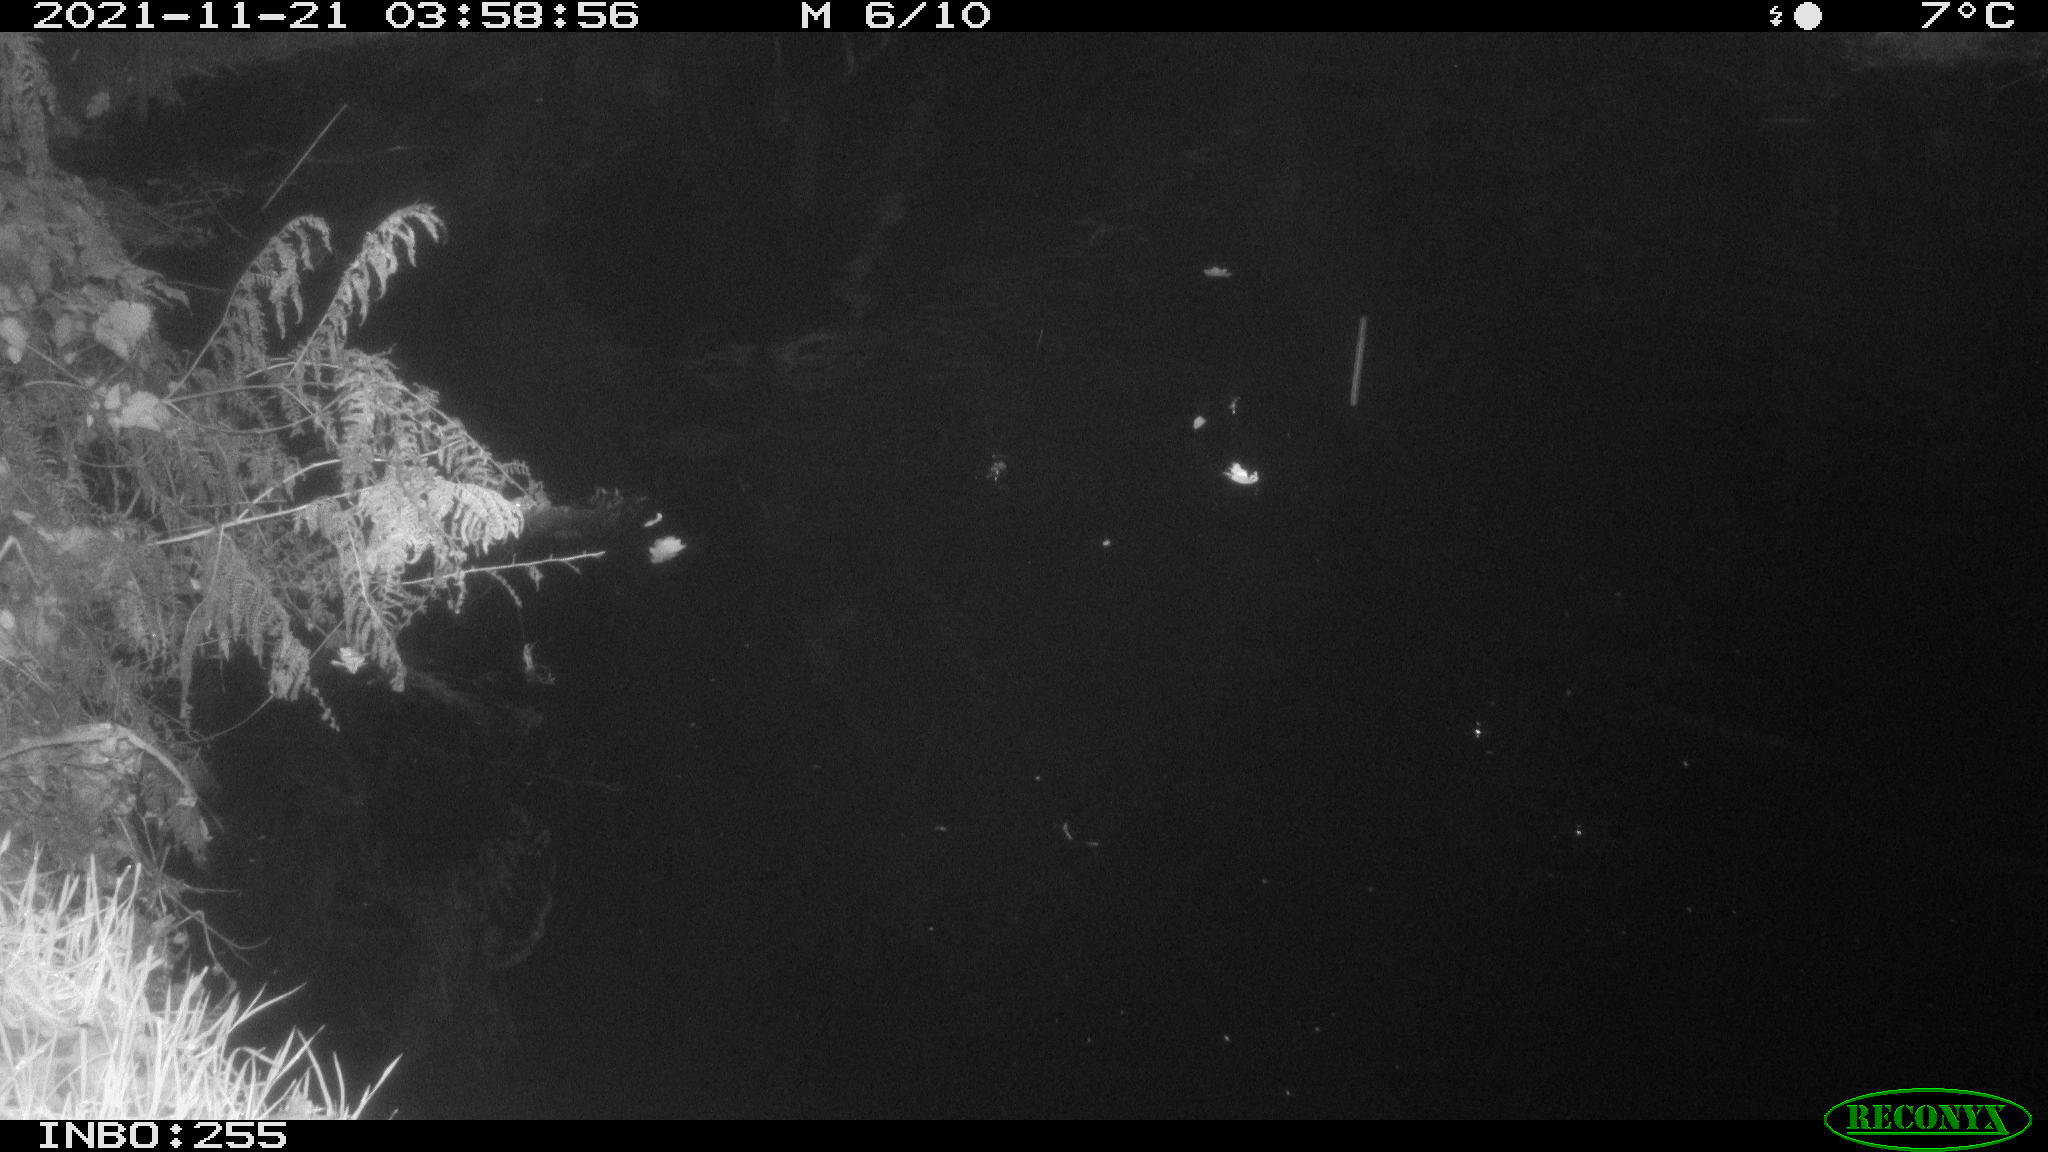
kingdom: Animalia
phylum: Chordata
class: Aves
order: Anseriformes
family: Anatidae
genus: Anas
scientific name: Anas platyrhynchos
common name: Mallard
